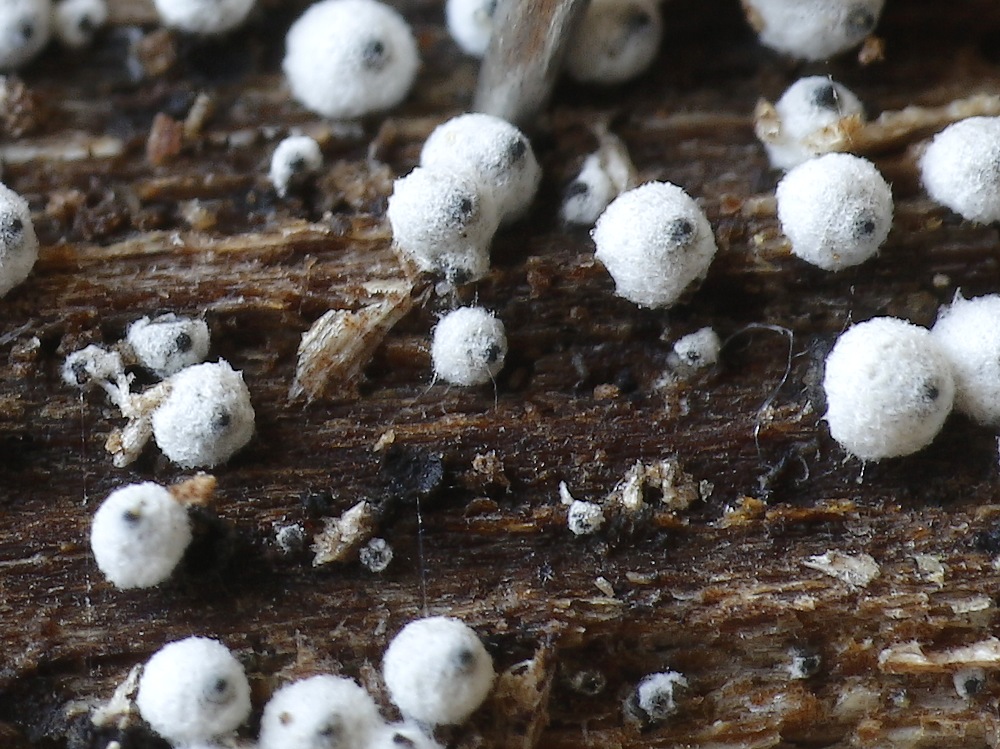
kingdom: Fungi
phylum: Ascomycota
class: Sordariomycetes
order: Sordariales
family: Lasiosphaeriaceae
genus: Lasiosphaeria
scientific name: Lasiosphaeria ovina
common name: fåre-kernesvamp
